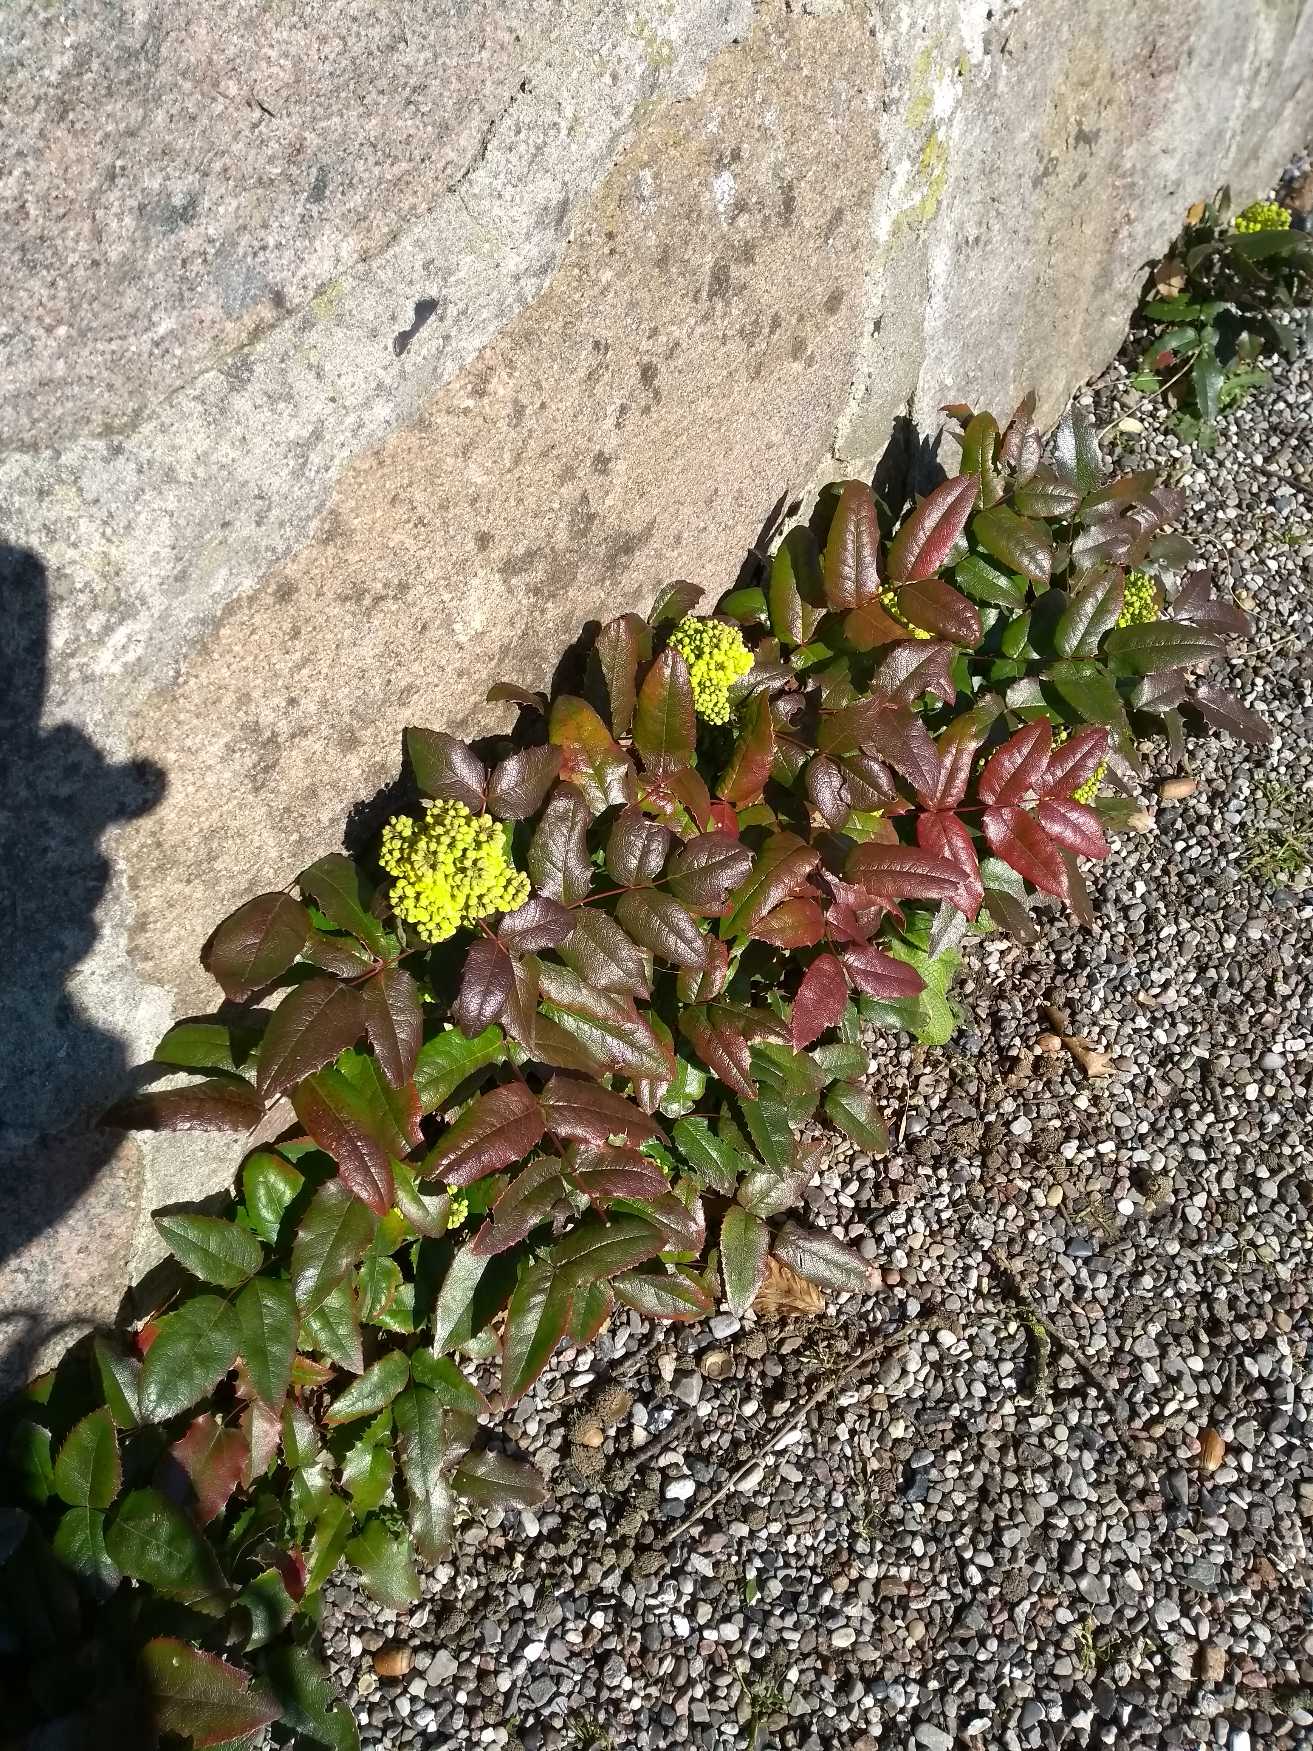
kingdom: Plantae
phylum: Tracheophyta
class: Magnoliopsida
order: Ranunculales
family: Berberidaceae
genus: Mahonia
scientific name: Mahonia aquifolium
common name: Almindelig mahonie
